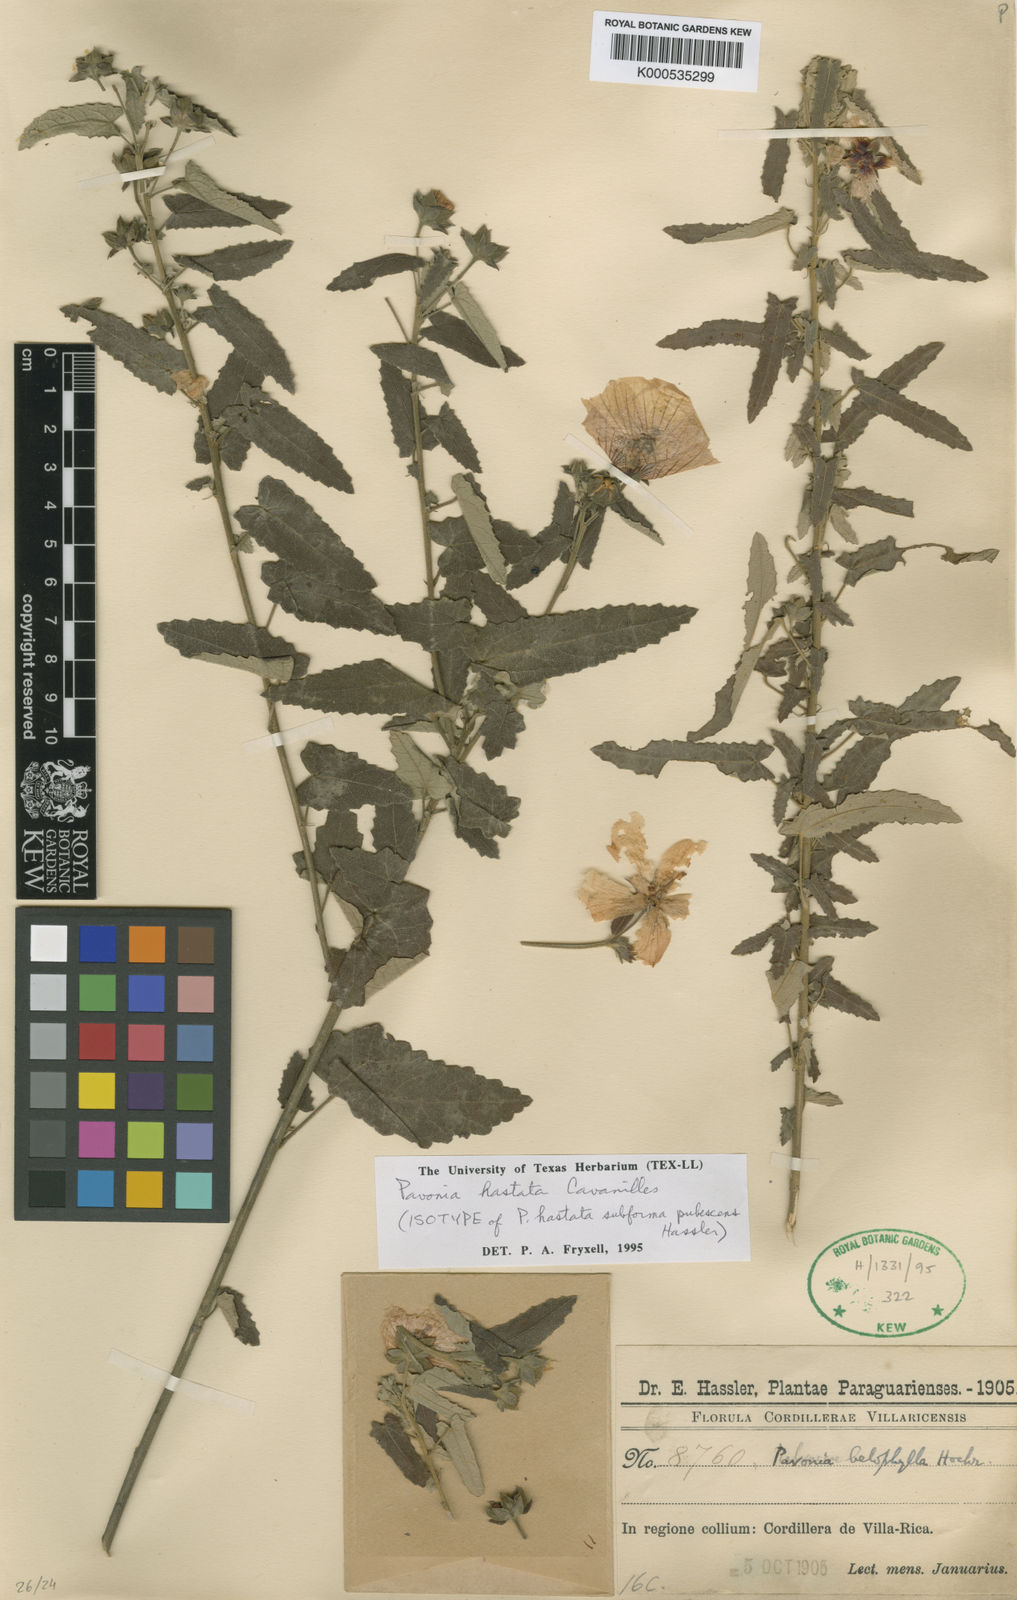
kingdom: Plantae
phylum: Tracheophyta
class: Magnoliopsida
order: Malvales
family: Malvaceae
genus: Pavonia
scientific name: Pavonia hastata
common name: Spearleaf swampmallow
